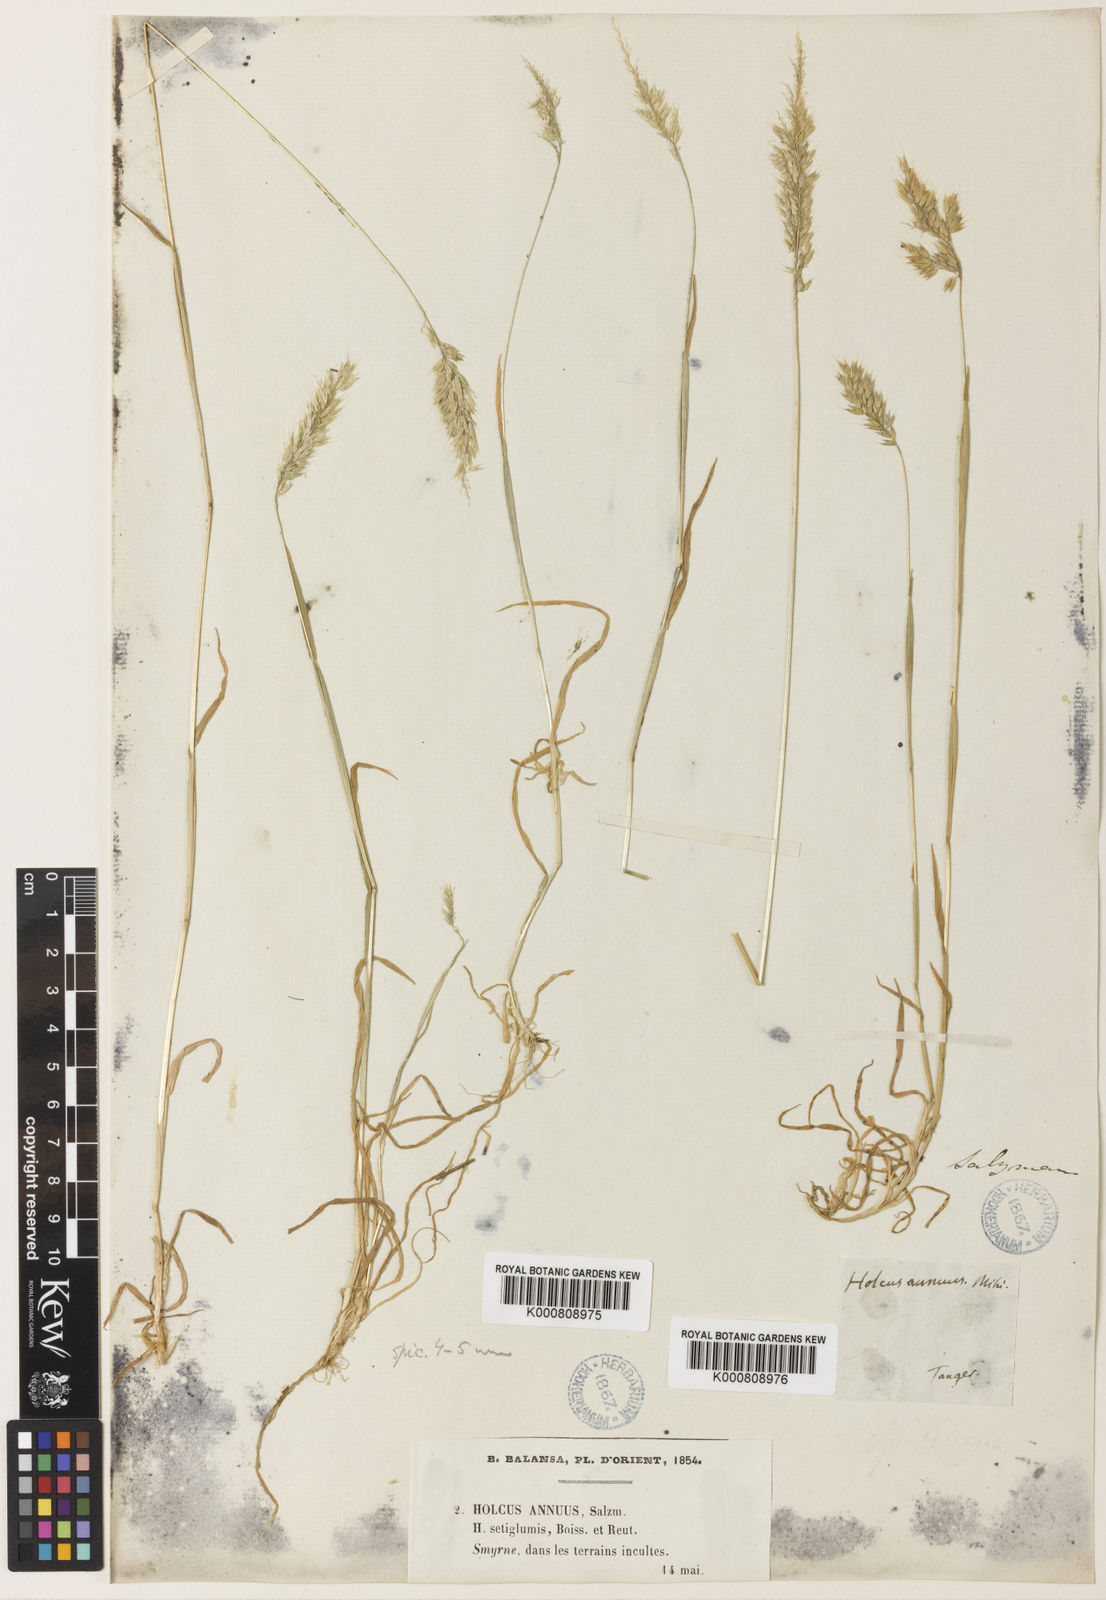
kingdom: Plantae
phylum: Tracheophyta
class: Liliopsida
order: Poales
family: Poaceae
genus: Holcus
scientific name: Holcus annuus
